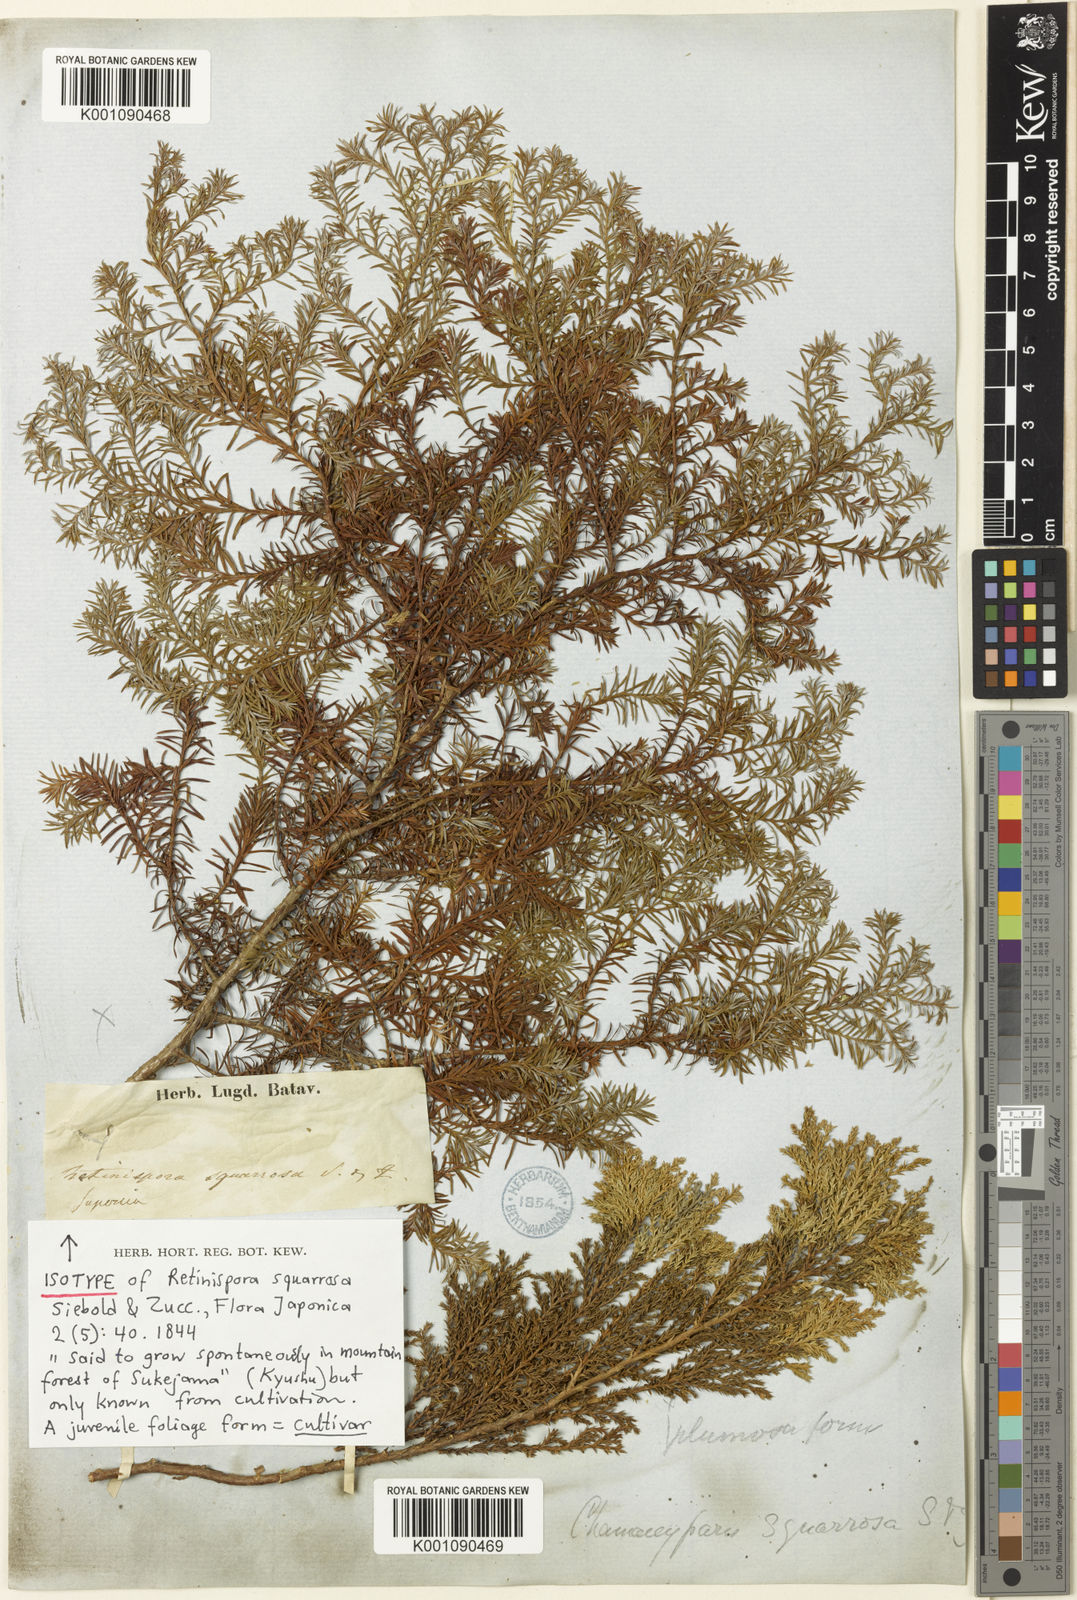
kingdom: Plantae
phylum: Tracheophyta
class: Pinopsida
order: Pinales
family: Cupressaceae
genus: Chamaecyparis
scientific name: Chamaecyparis pisifera
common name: Sawara cypress
